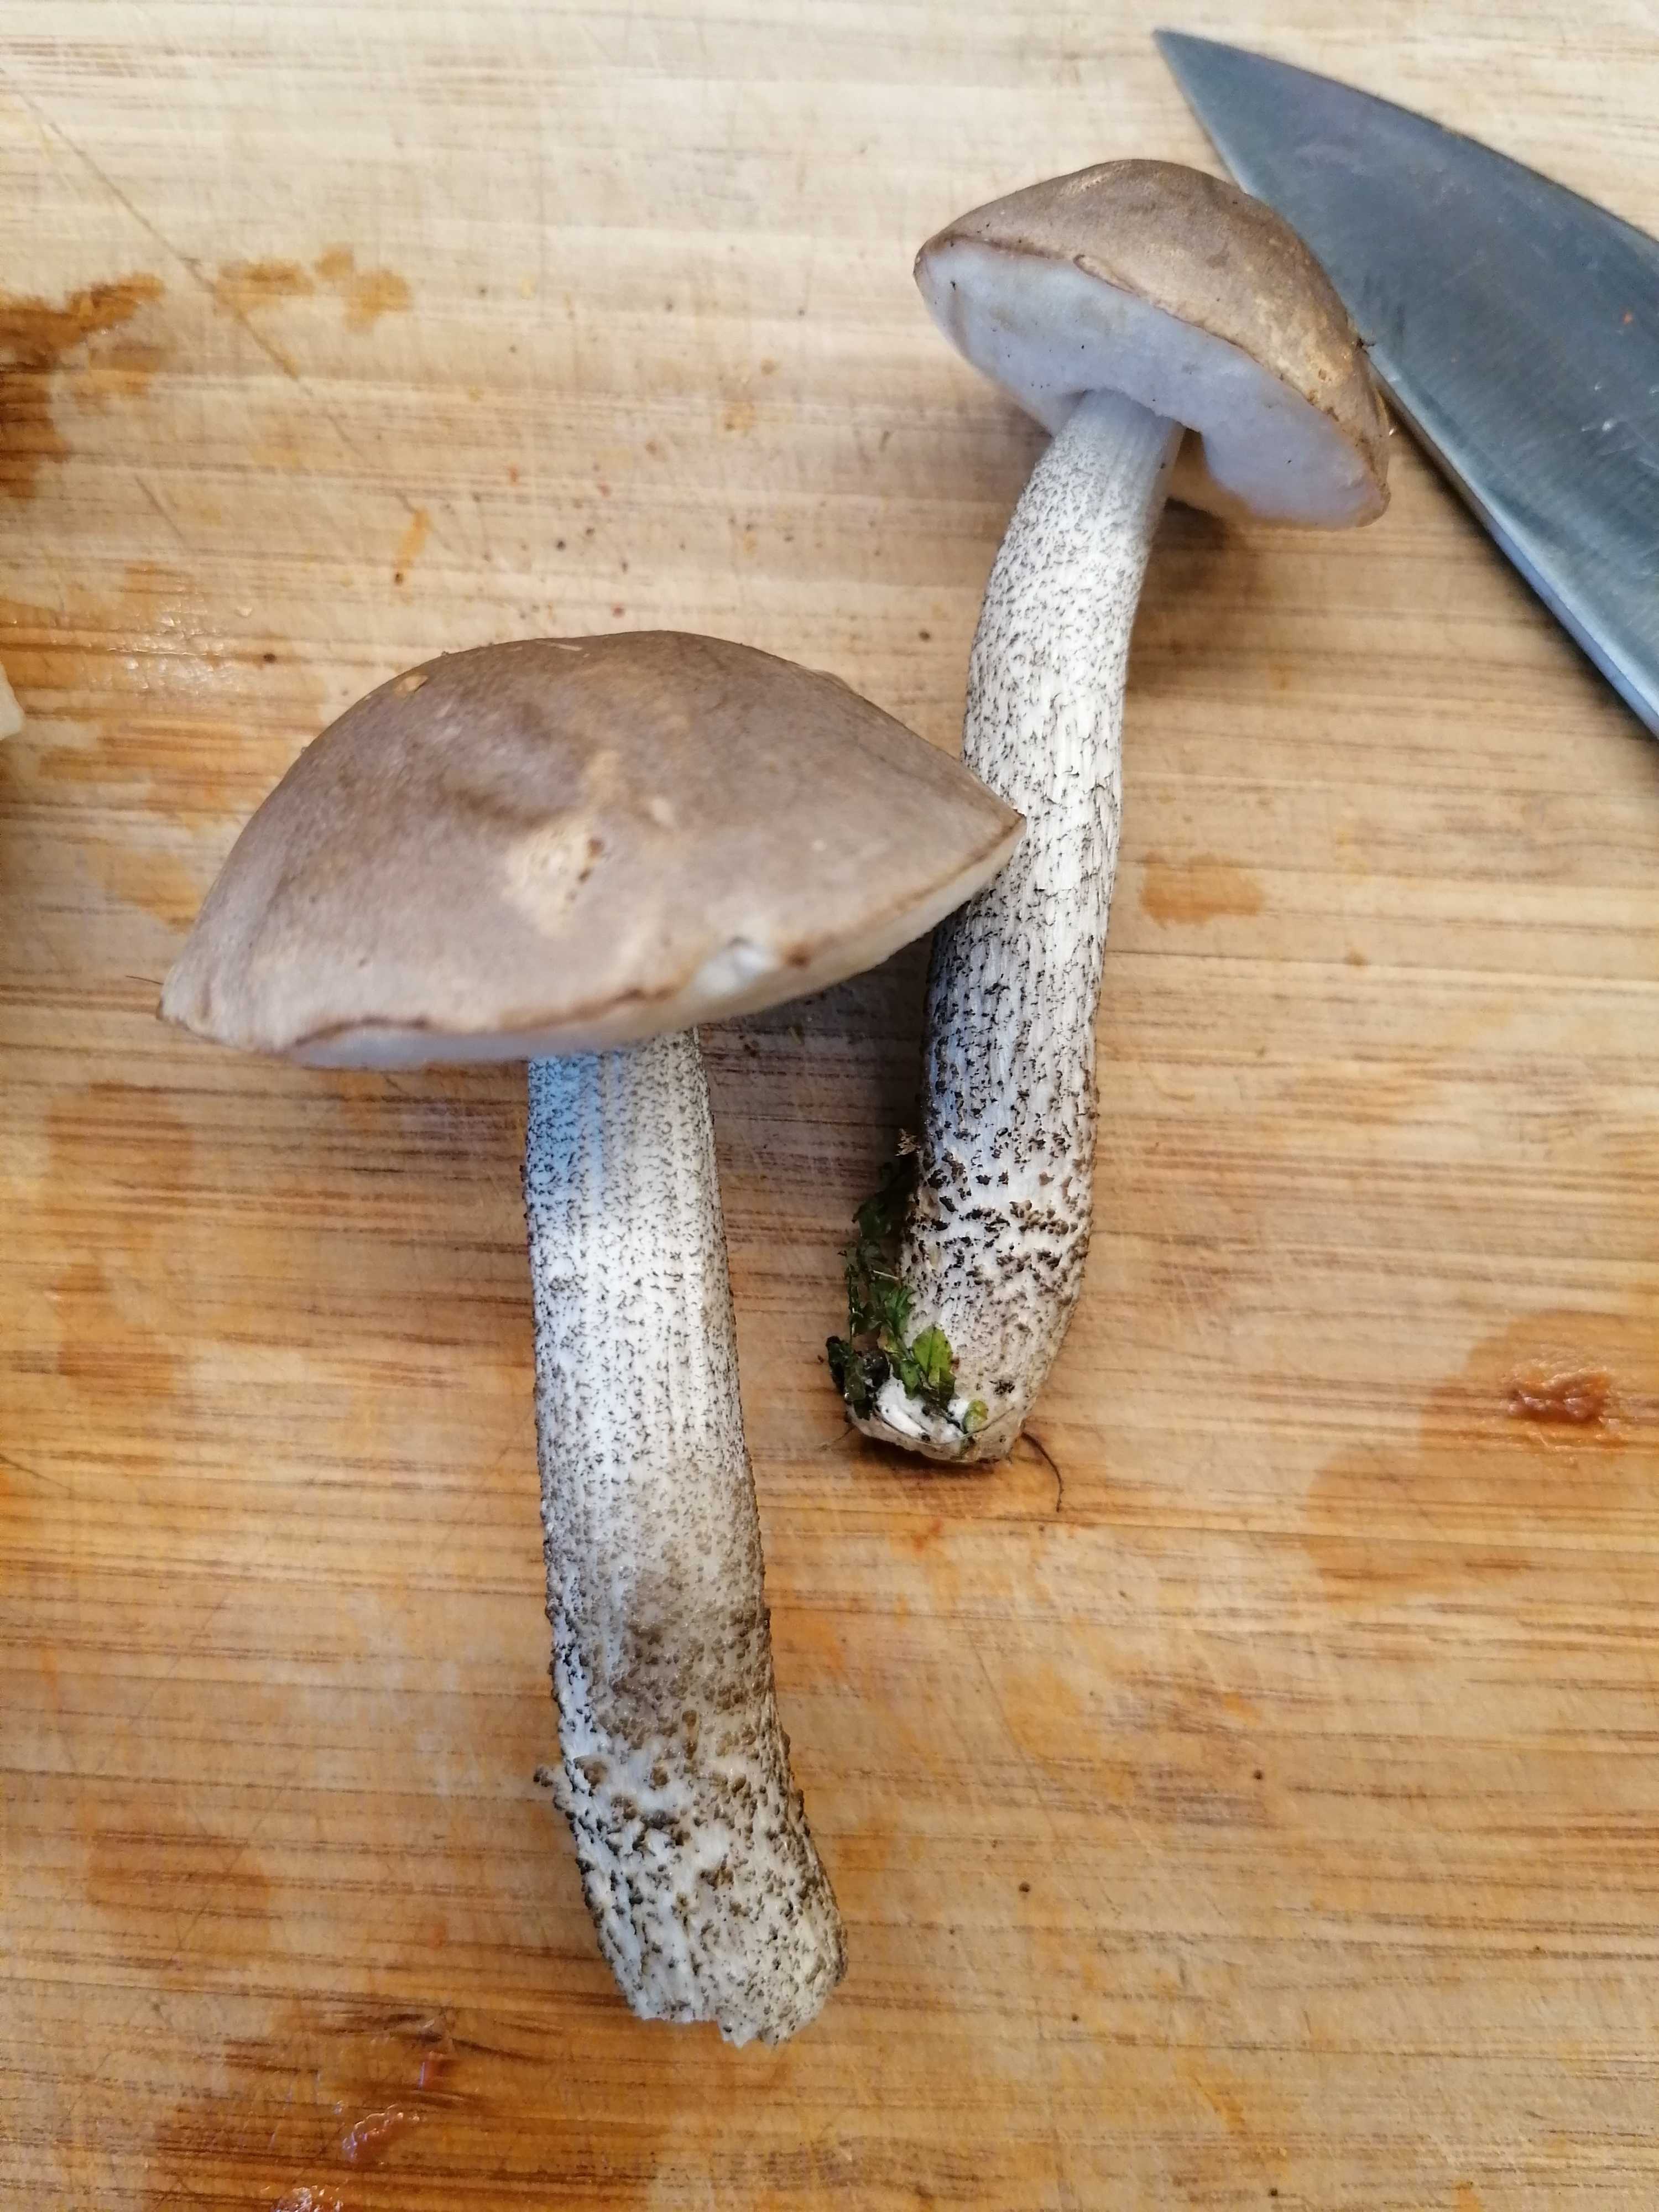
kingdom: Fungi
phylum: Basidiomycota
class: Agaricomycetes
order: Boletales
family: Boletaceae
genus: Leccinum
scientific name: Leccinum scabrum
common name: brun skælrørhat
